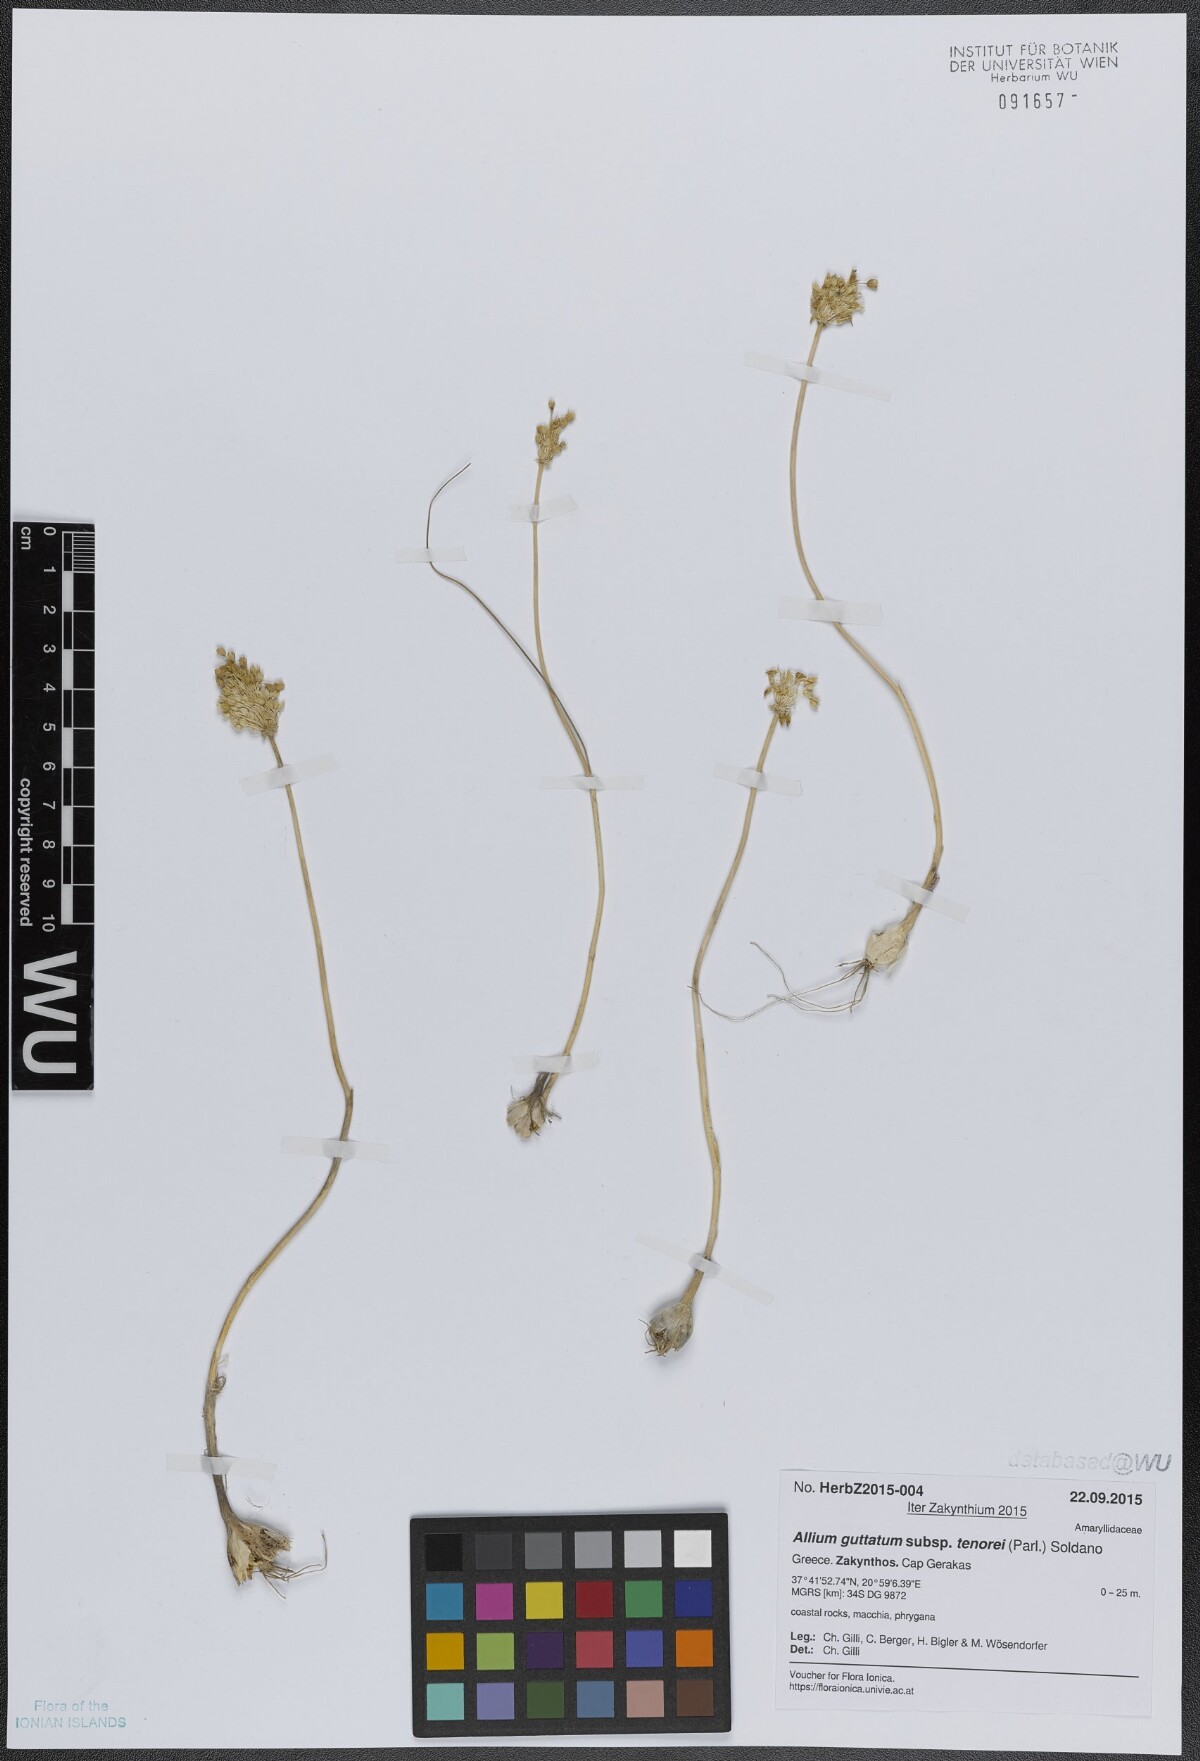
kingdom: Plantae
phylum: Tracheophyta
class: Liliopsida
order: Asparagales
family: Amaryllidaceae
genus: Allium
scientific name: Allium sardoum
